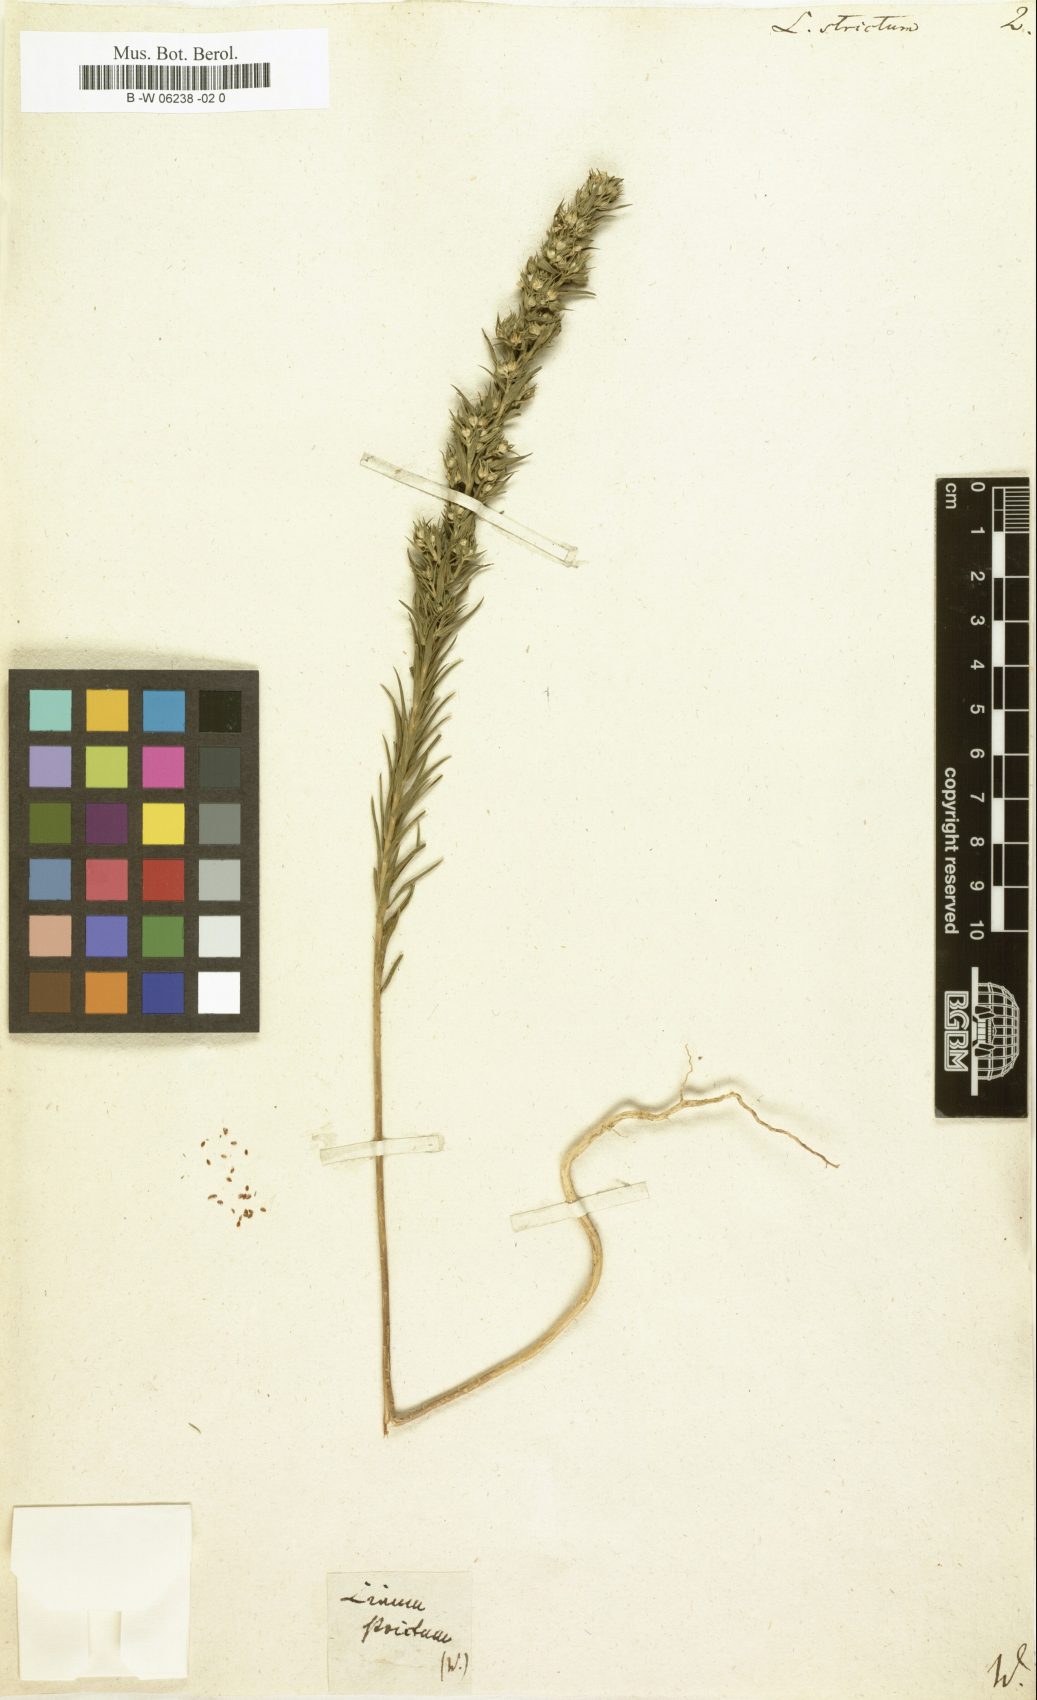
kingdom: Plantae
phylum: Tracheophyta
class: Magnoliopsida
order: Malpighiales
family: Linaceae
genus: Linum
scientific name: Linum strictum
